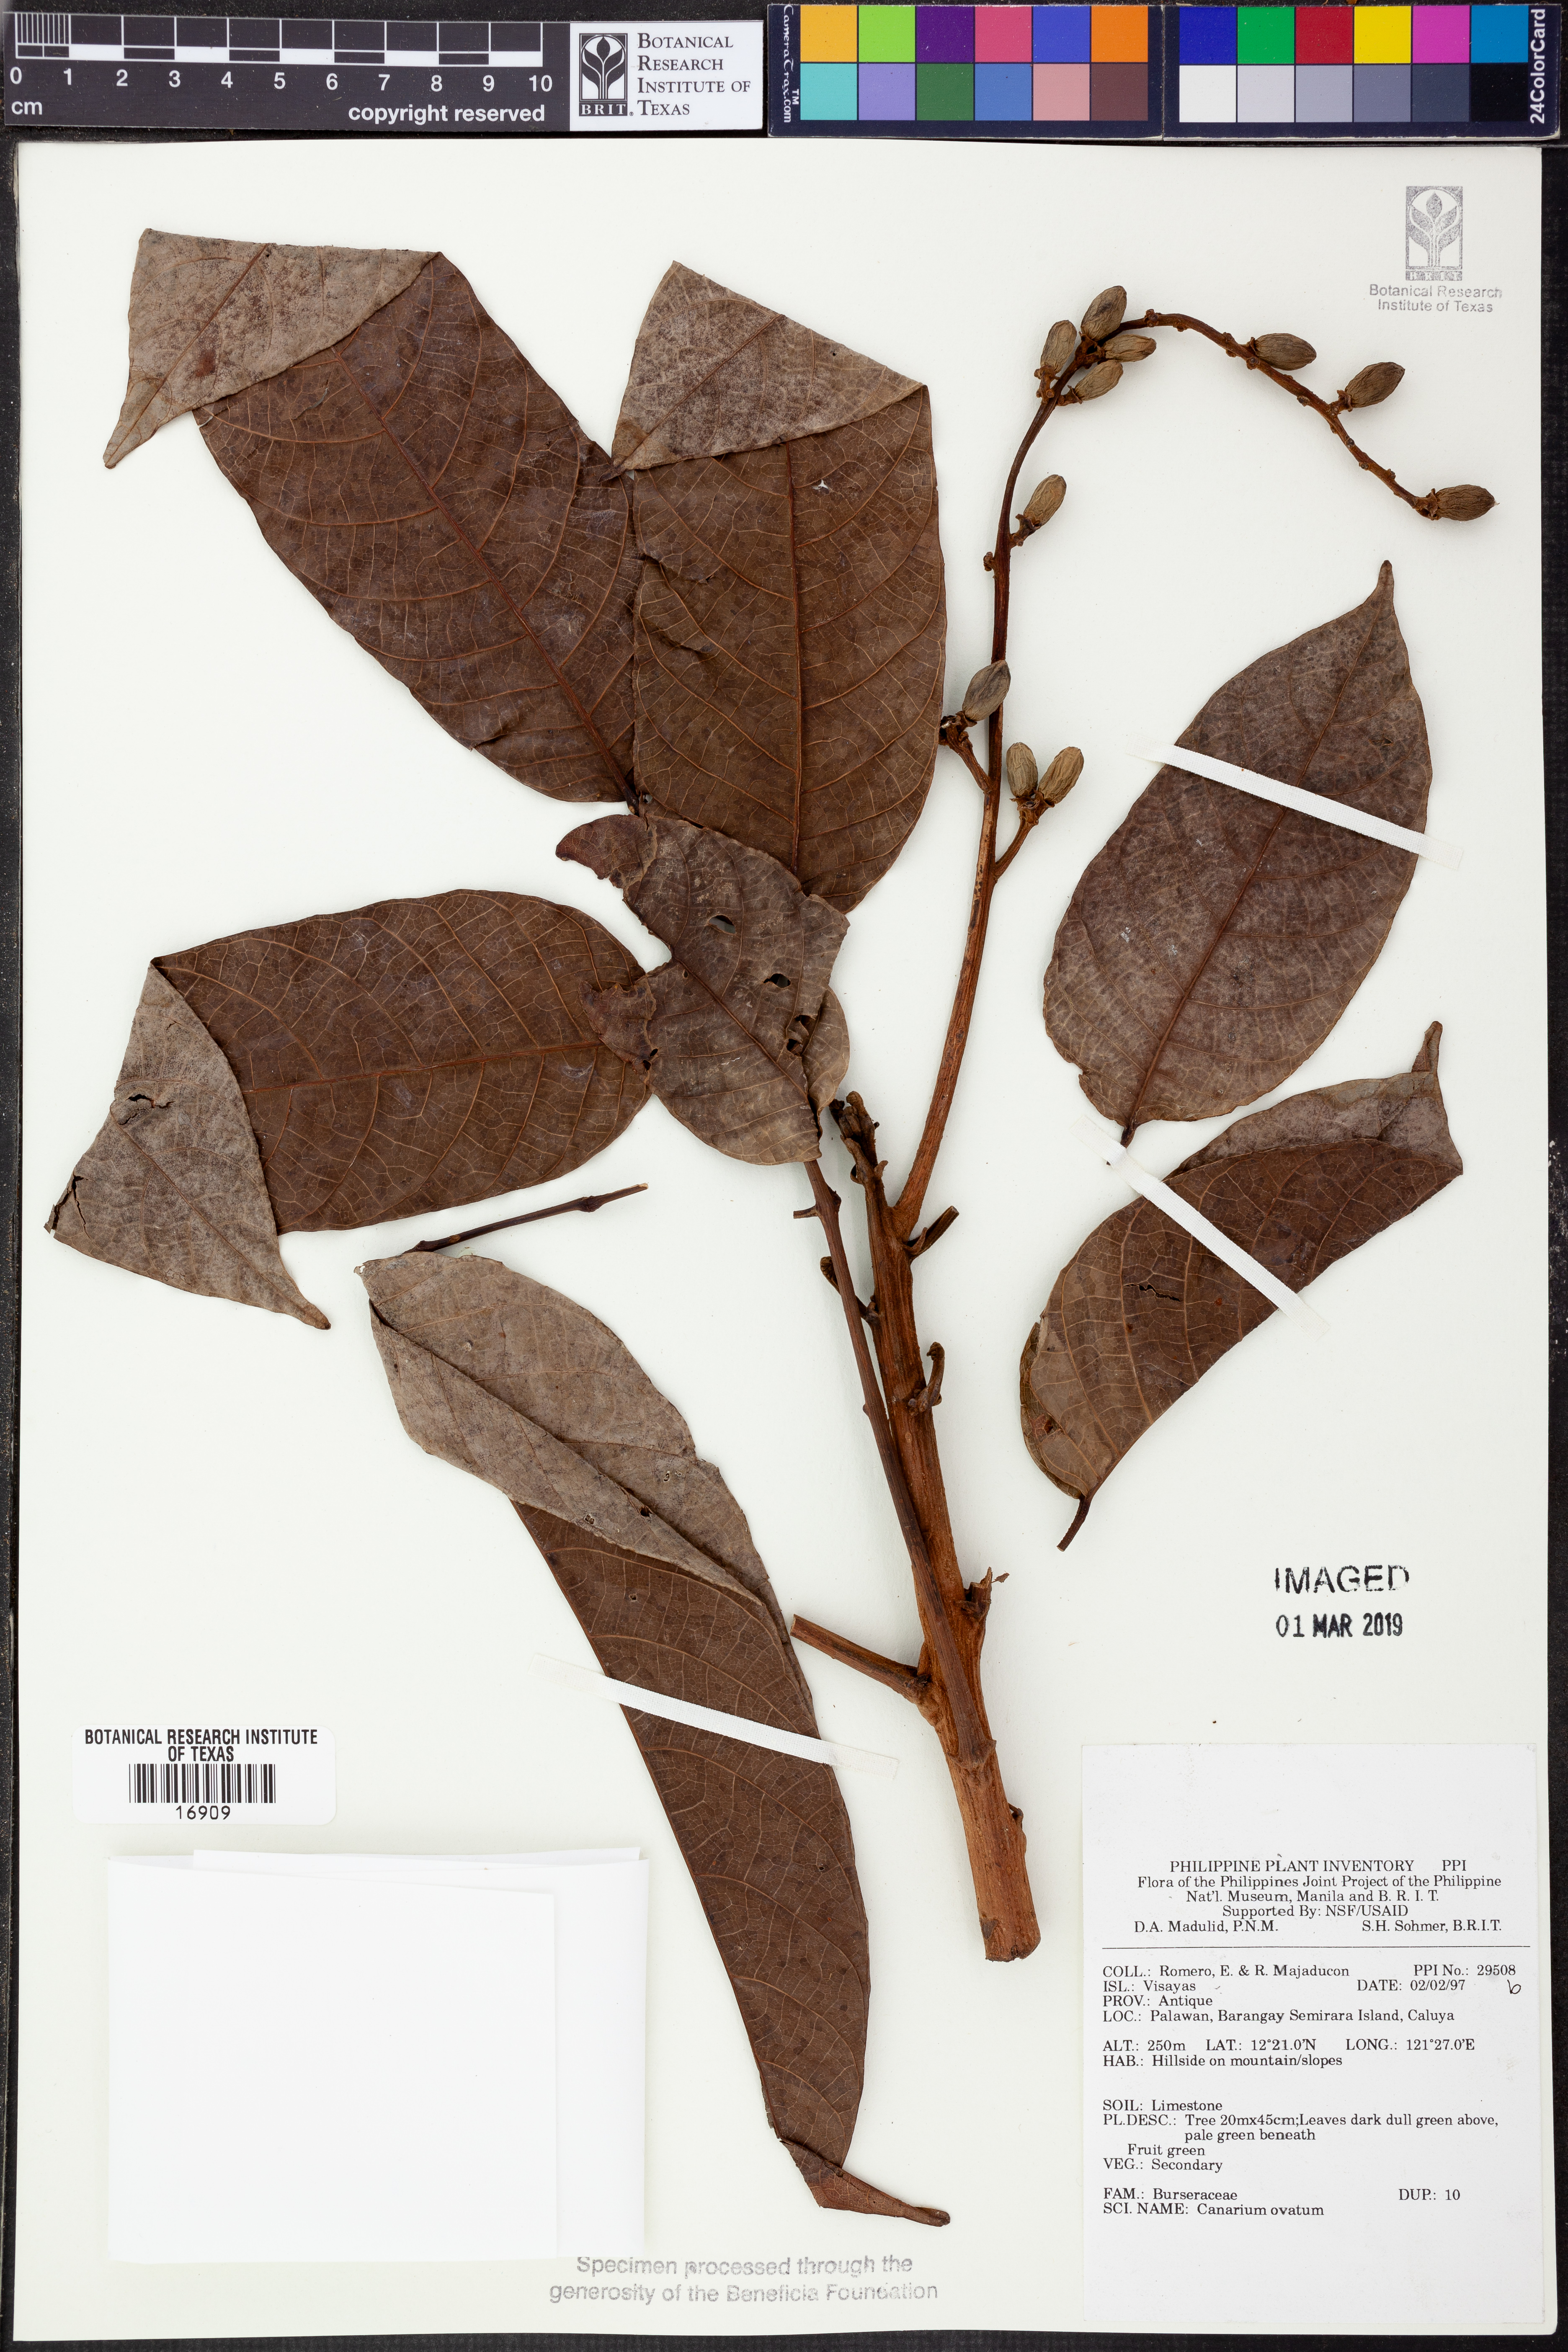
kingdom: Plantae
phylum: Tracheophyta
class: Magnoliopsida
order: Sapindales
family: Burseraceae
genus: Canarium
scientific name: Canarium ovatum
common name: Pilinut
